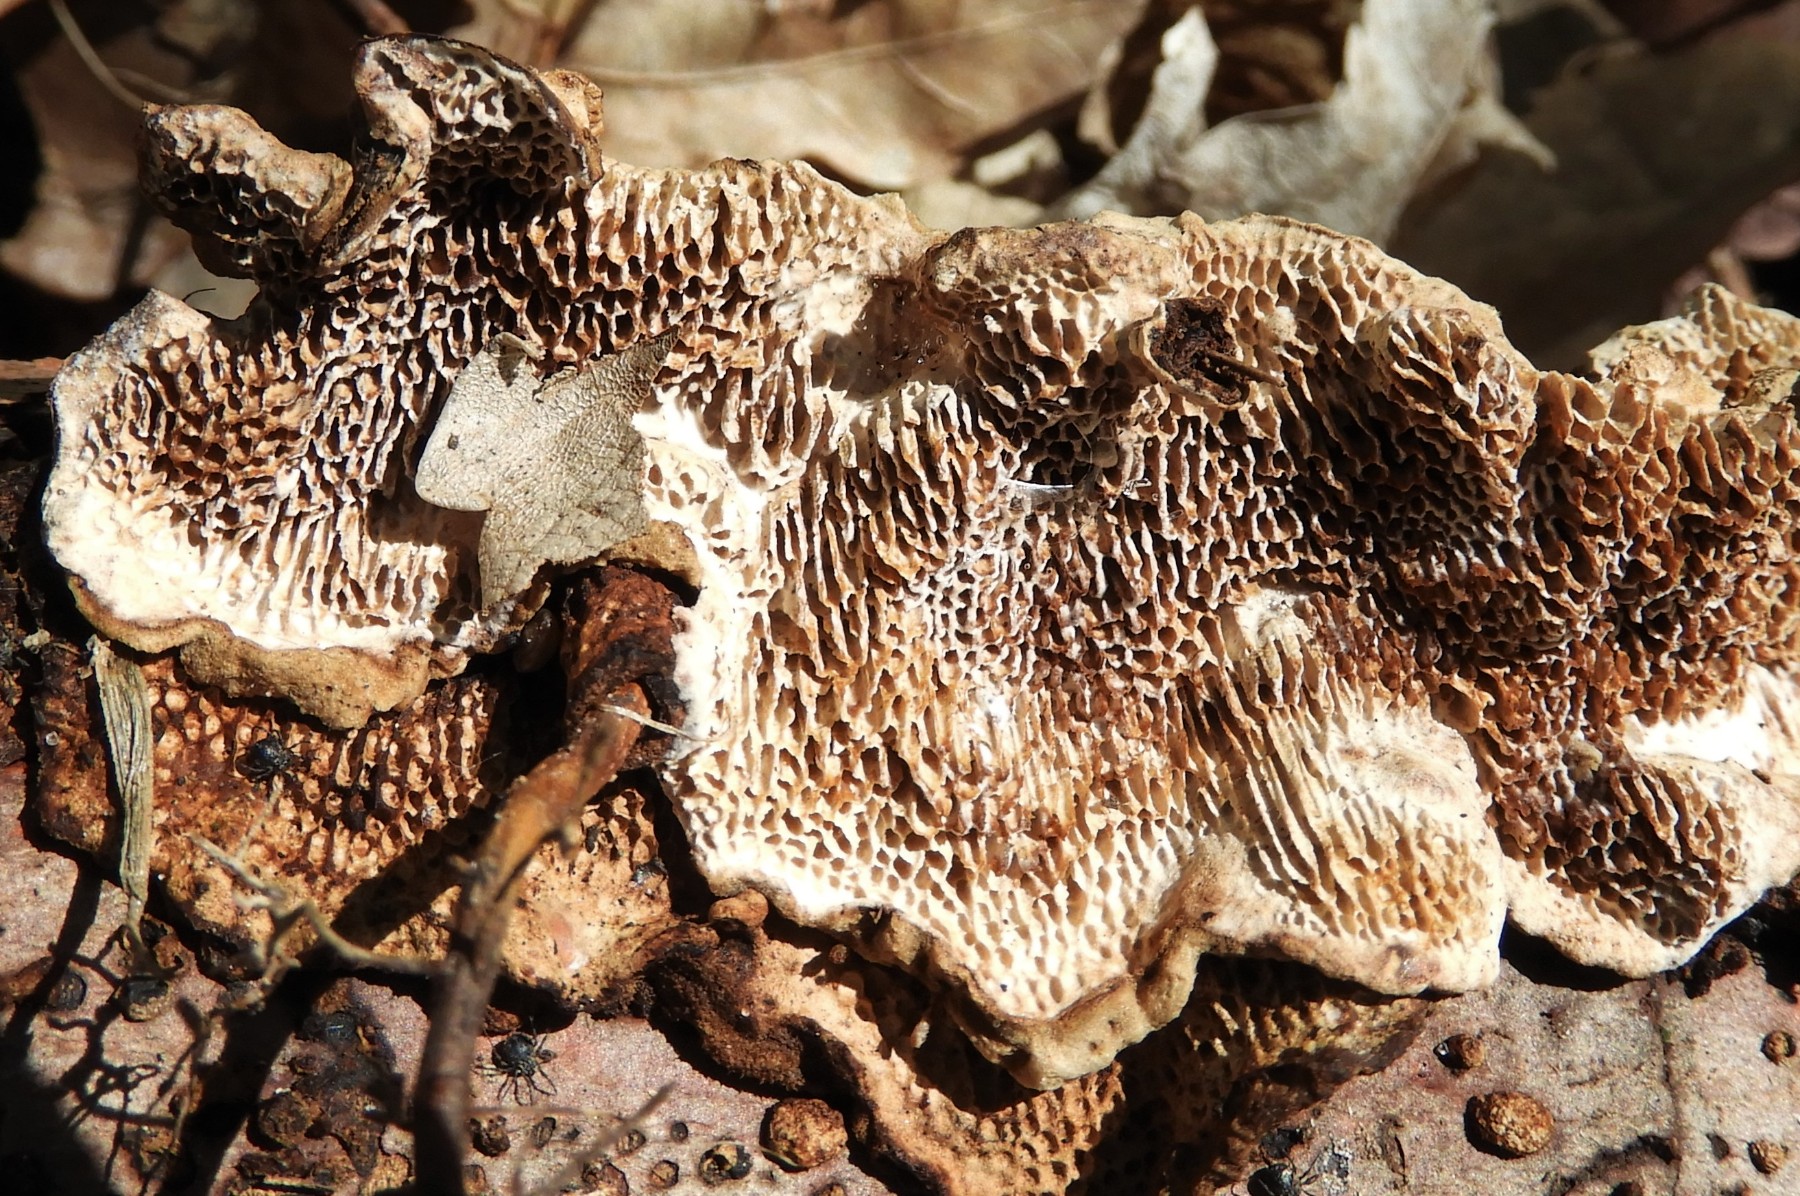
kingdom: Fungi
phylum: Basidiomycota
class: Agaricomycetes
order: Polyporales
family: Polyporaceae
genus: Podofomes
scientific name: Podofomes mollis
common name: blød begporesvamp
